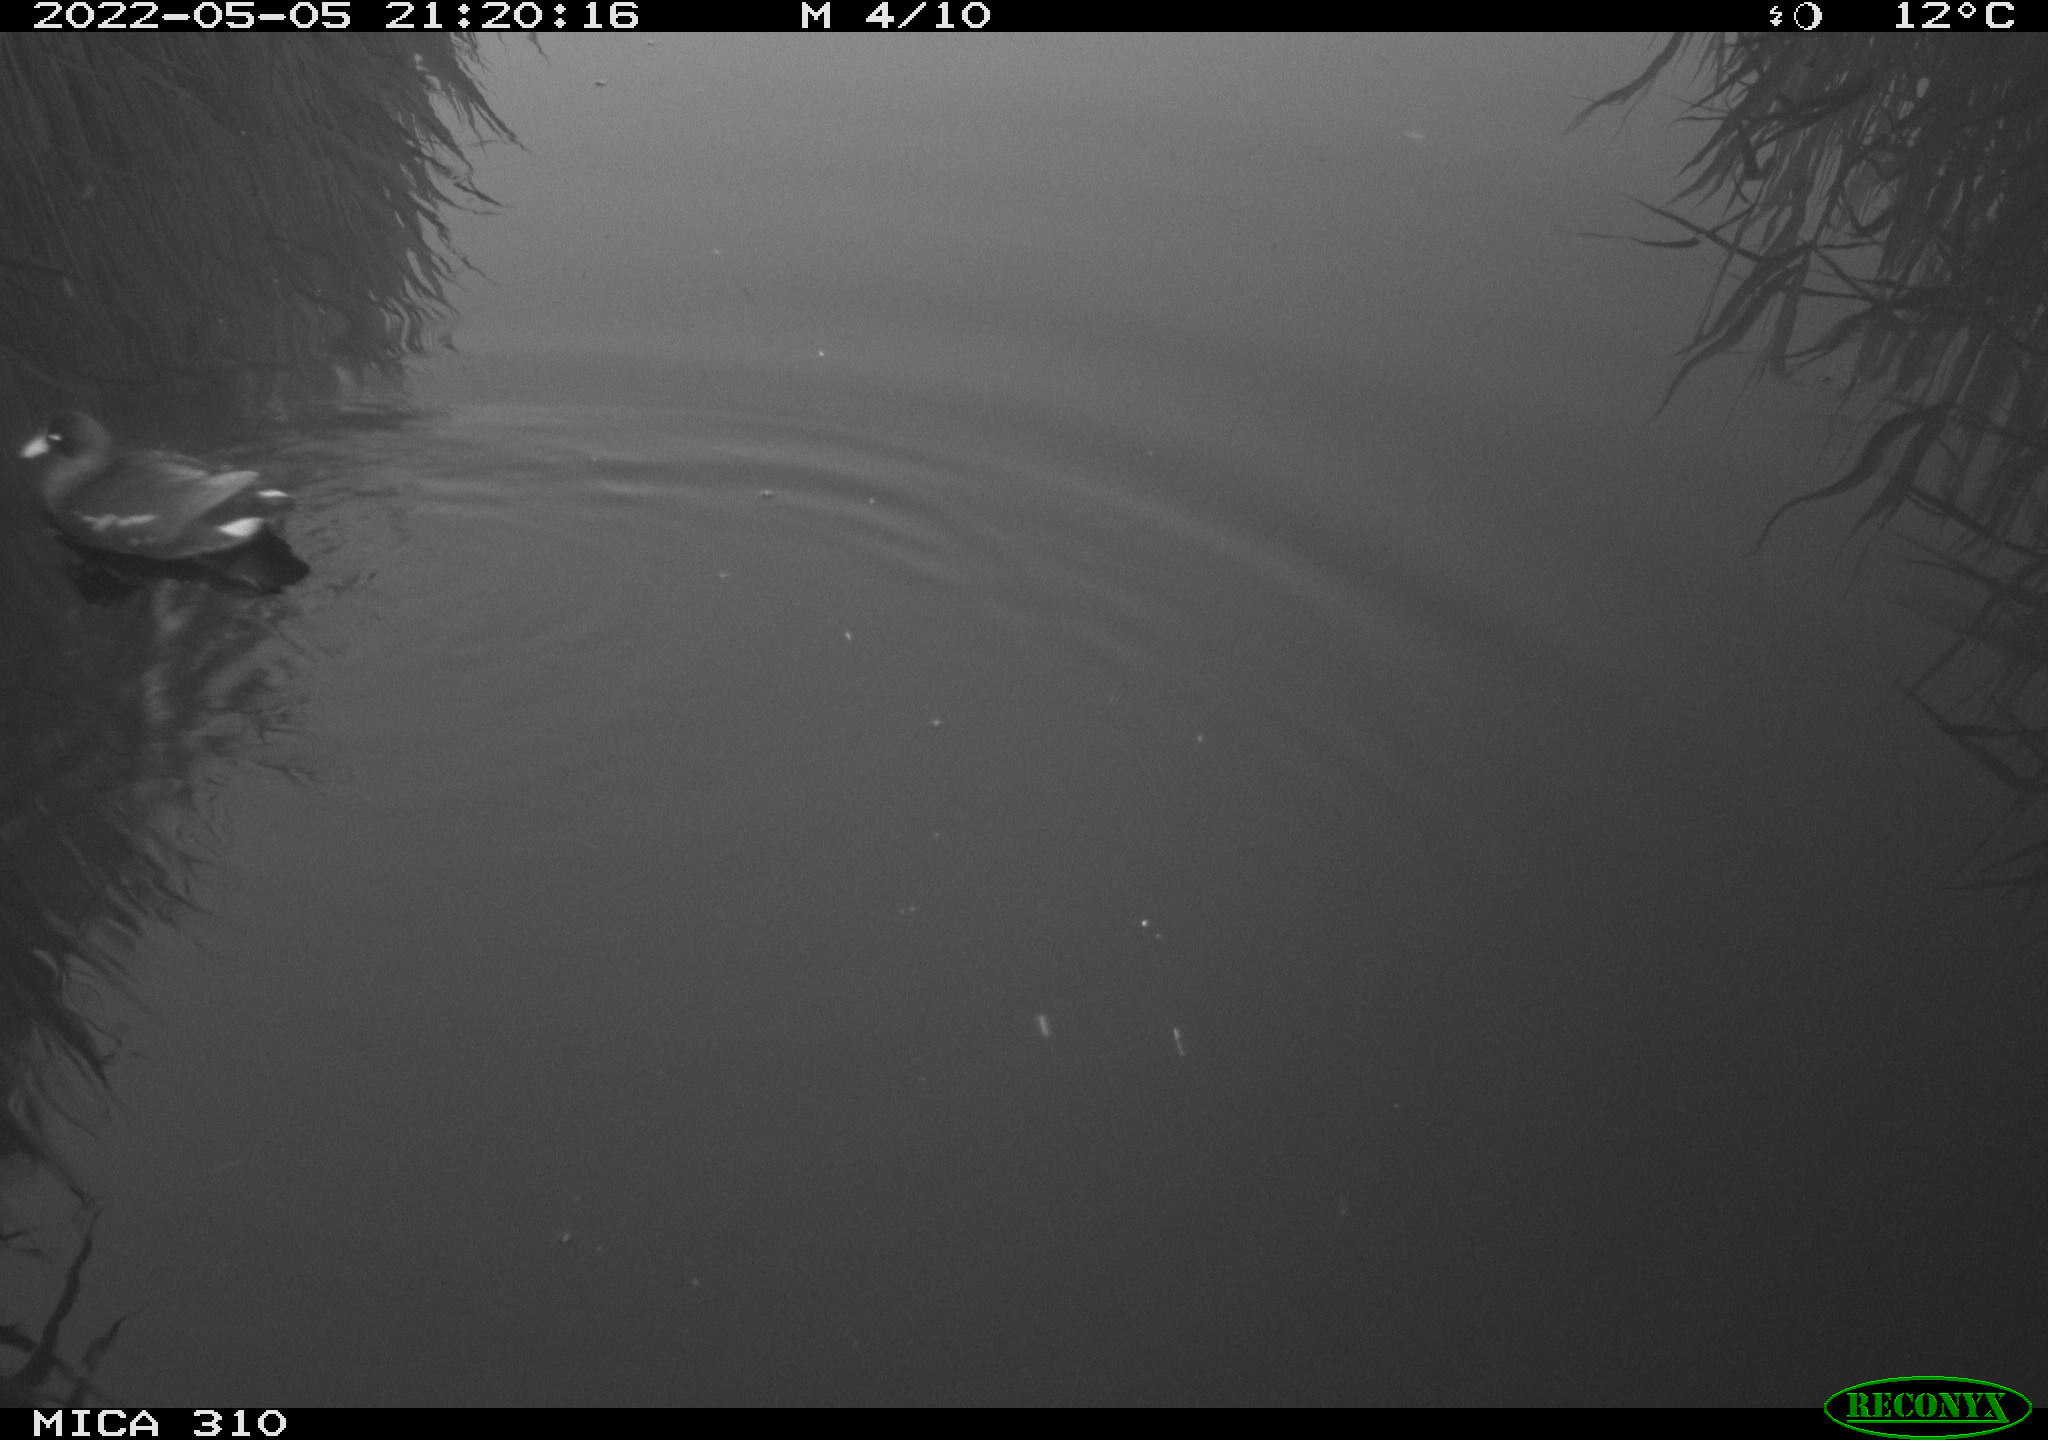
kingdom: Animalia
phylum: Chordata
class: Aves
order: Gruiformes
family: Rallidae
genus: Gallinula
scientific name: Gallinula chloropus
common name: Common moorhen
